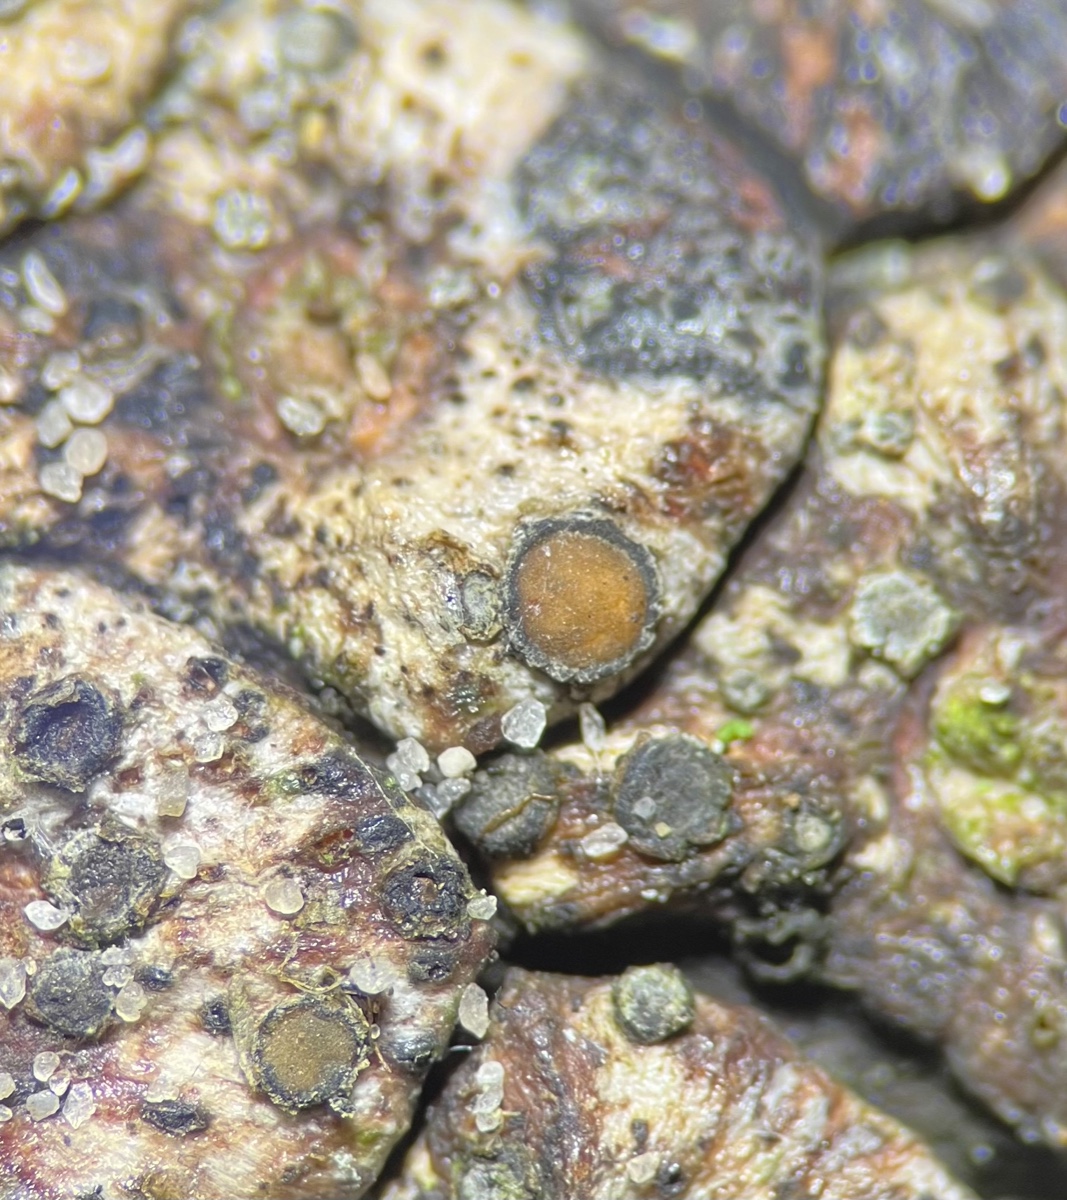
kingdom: Fungi
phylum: Ascomycota
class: Lecanoromycetes
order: Ostropales
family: Stictidaceae
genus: Schizoxylon
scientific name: Schizoxylon
